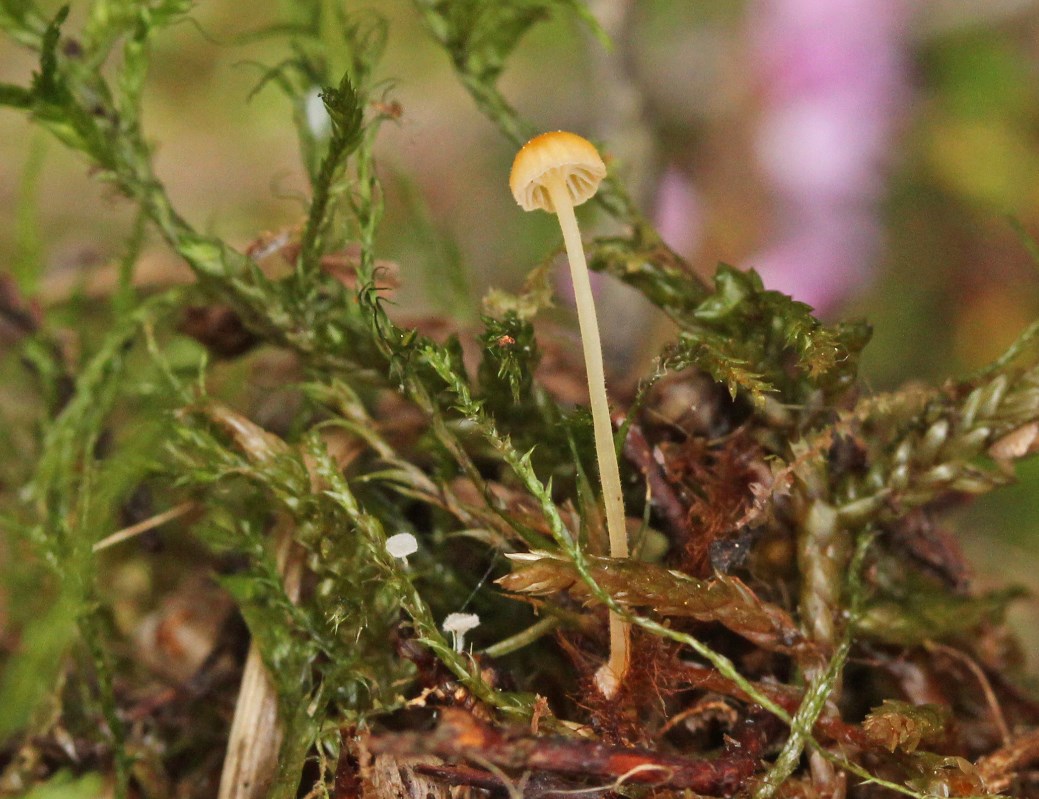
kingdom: Fungi
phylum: Basidiomycota
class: Agaricomycetes
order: Hymenochaetales
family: Rickenellaceae
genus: Rickenella
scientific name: Rickenella fibula
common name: orange mosnavlehat
